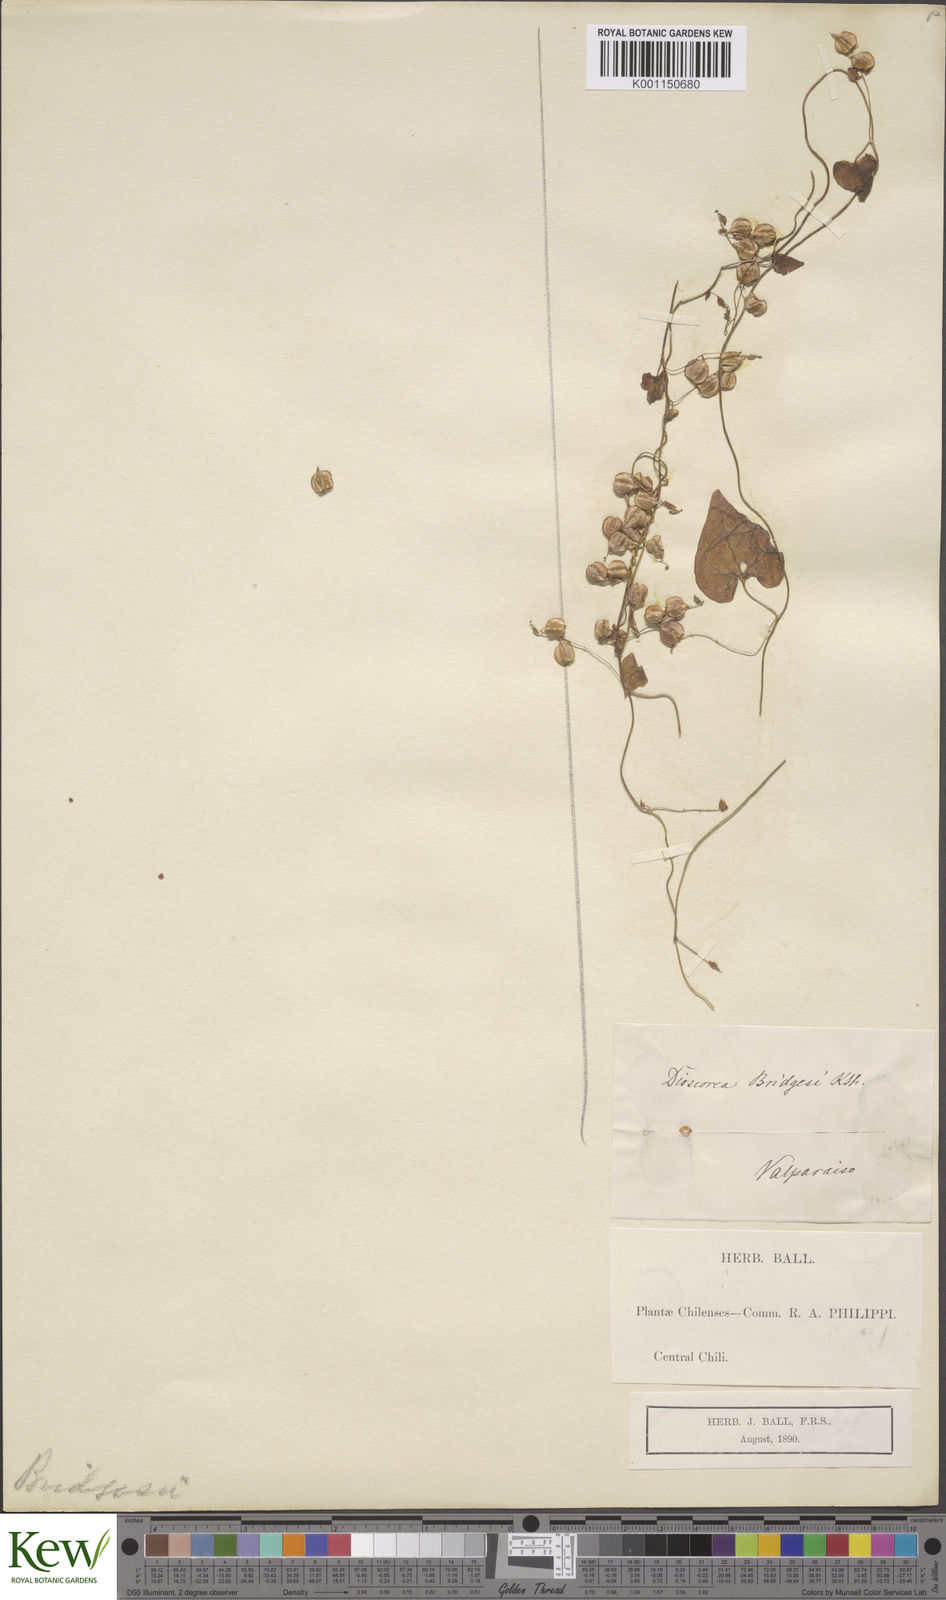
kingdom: Plantae
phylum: Tracheophyta
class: Liliopsida
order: Dioscoreales
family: Dioscoreaceae
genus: Dioscorea
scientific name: Dioscorea besseriana
